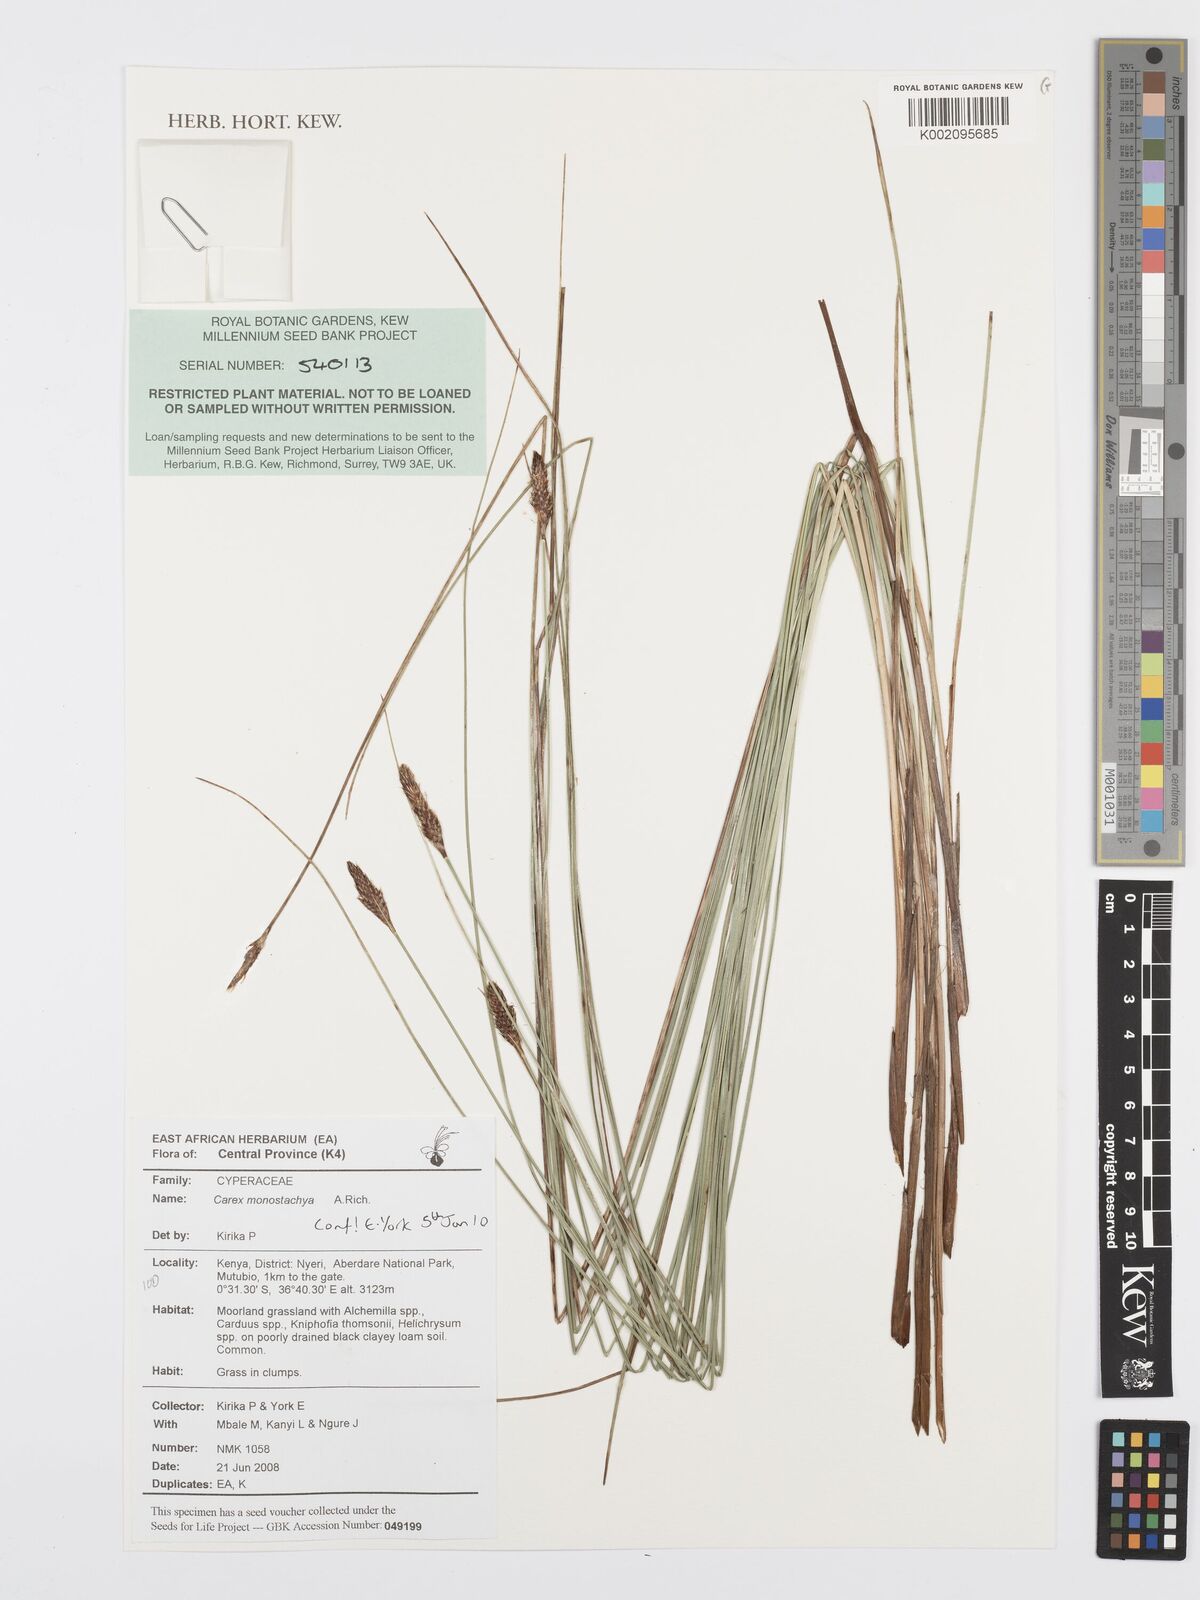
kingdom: Plantae
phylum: Tracheophyta
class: Liliopsida
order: Poales
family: Cyperaceae
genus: Carex
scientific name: Carex monostachya
